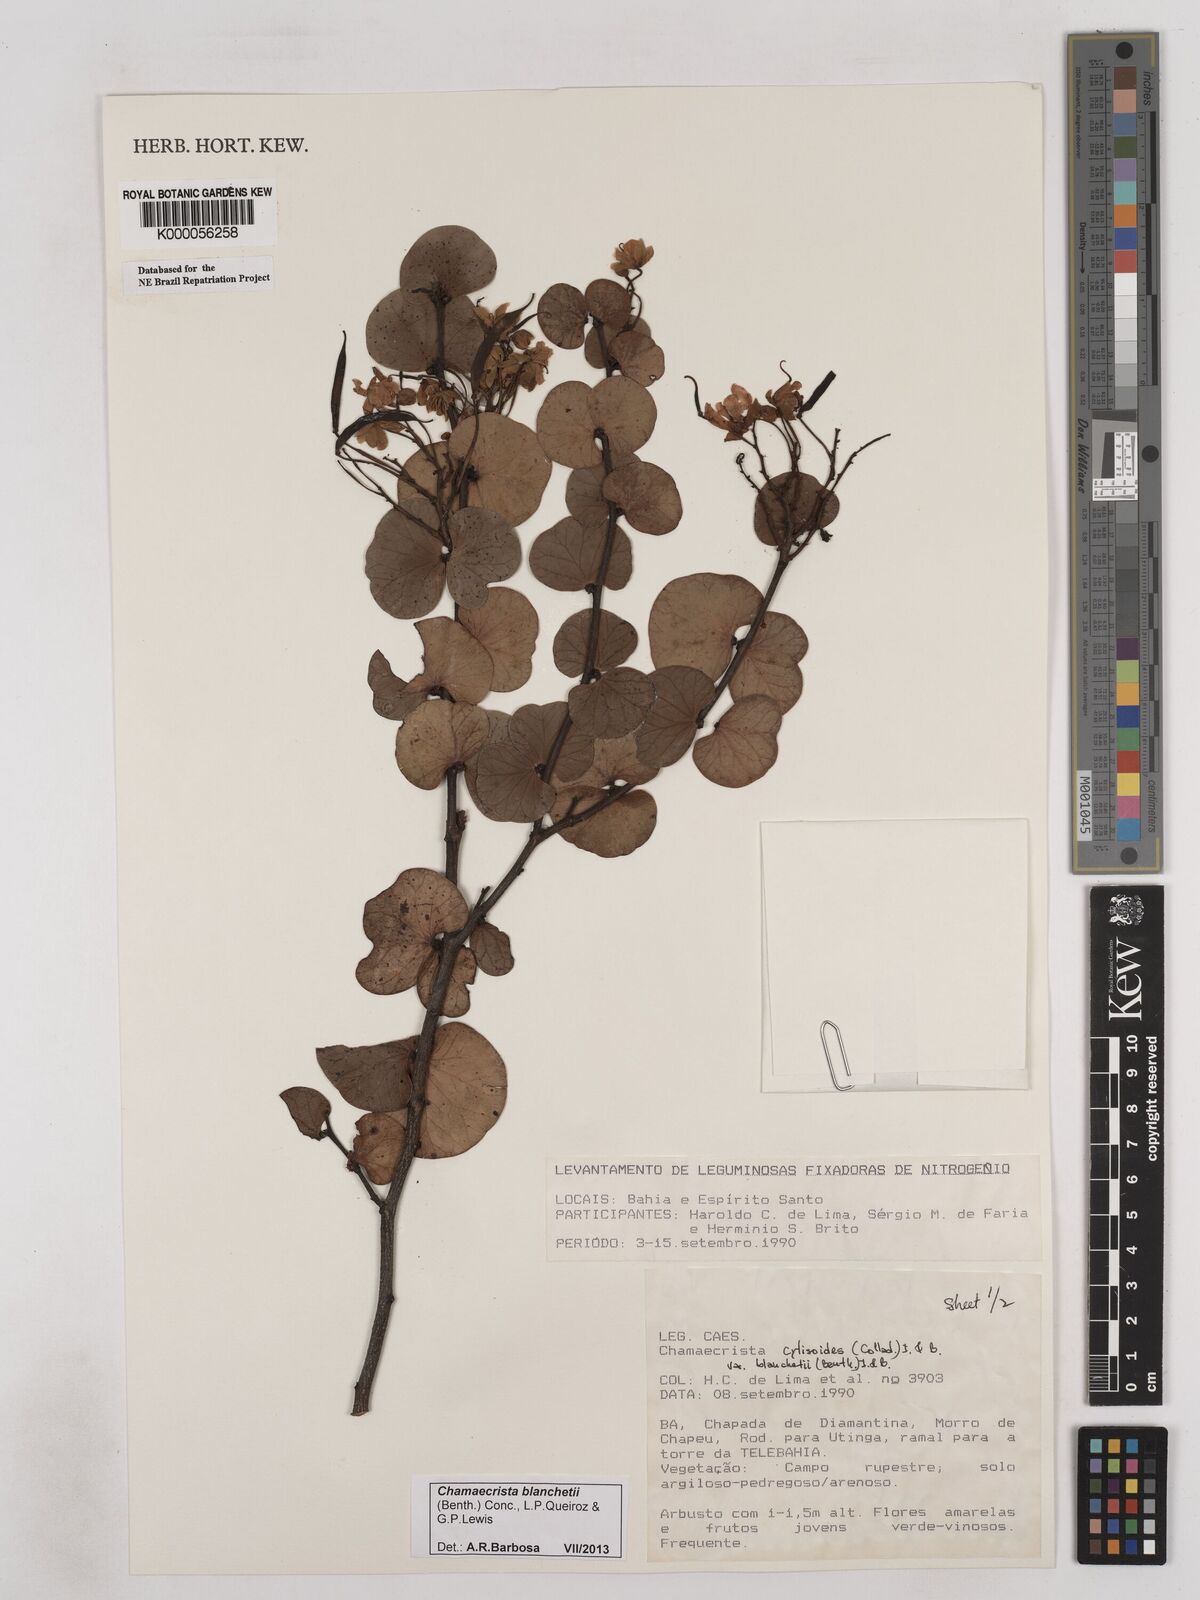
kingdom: Plantae
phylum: Tracheophyta
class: Magnoliopsida
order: Fabales
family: Fabaceae
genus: Chamaecrista
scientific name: Chamaecrista cytisoides
